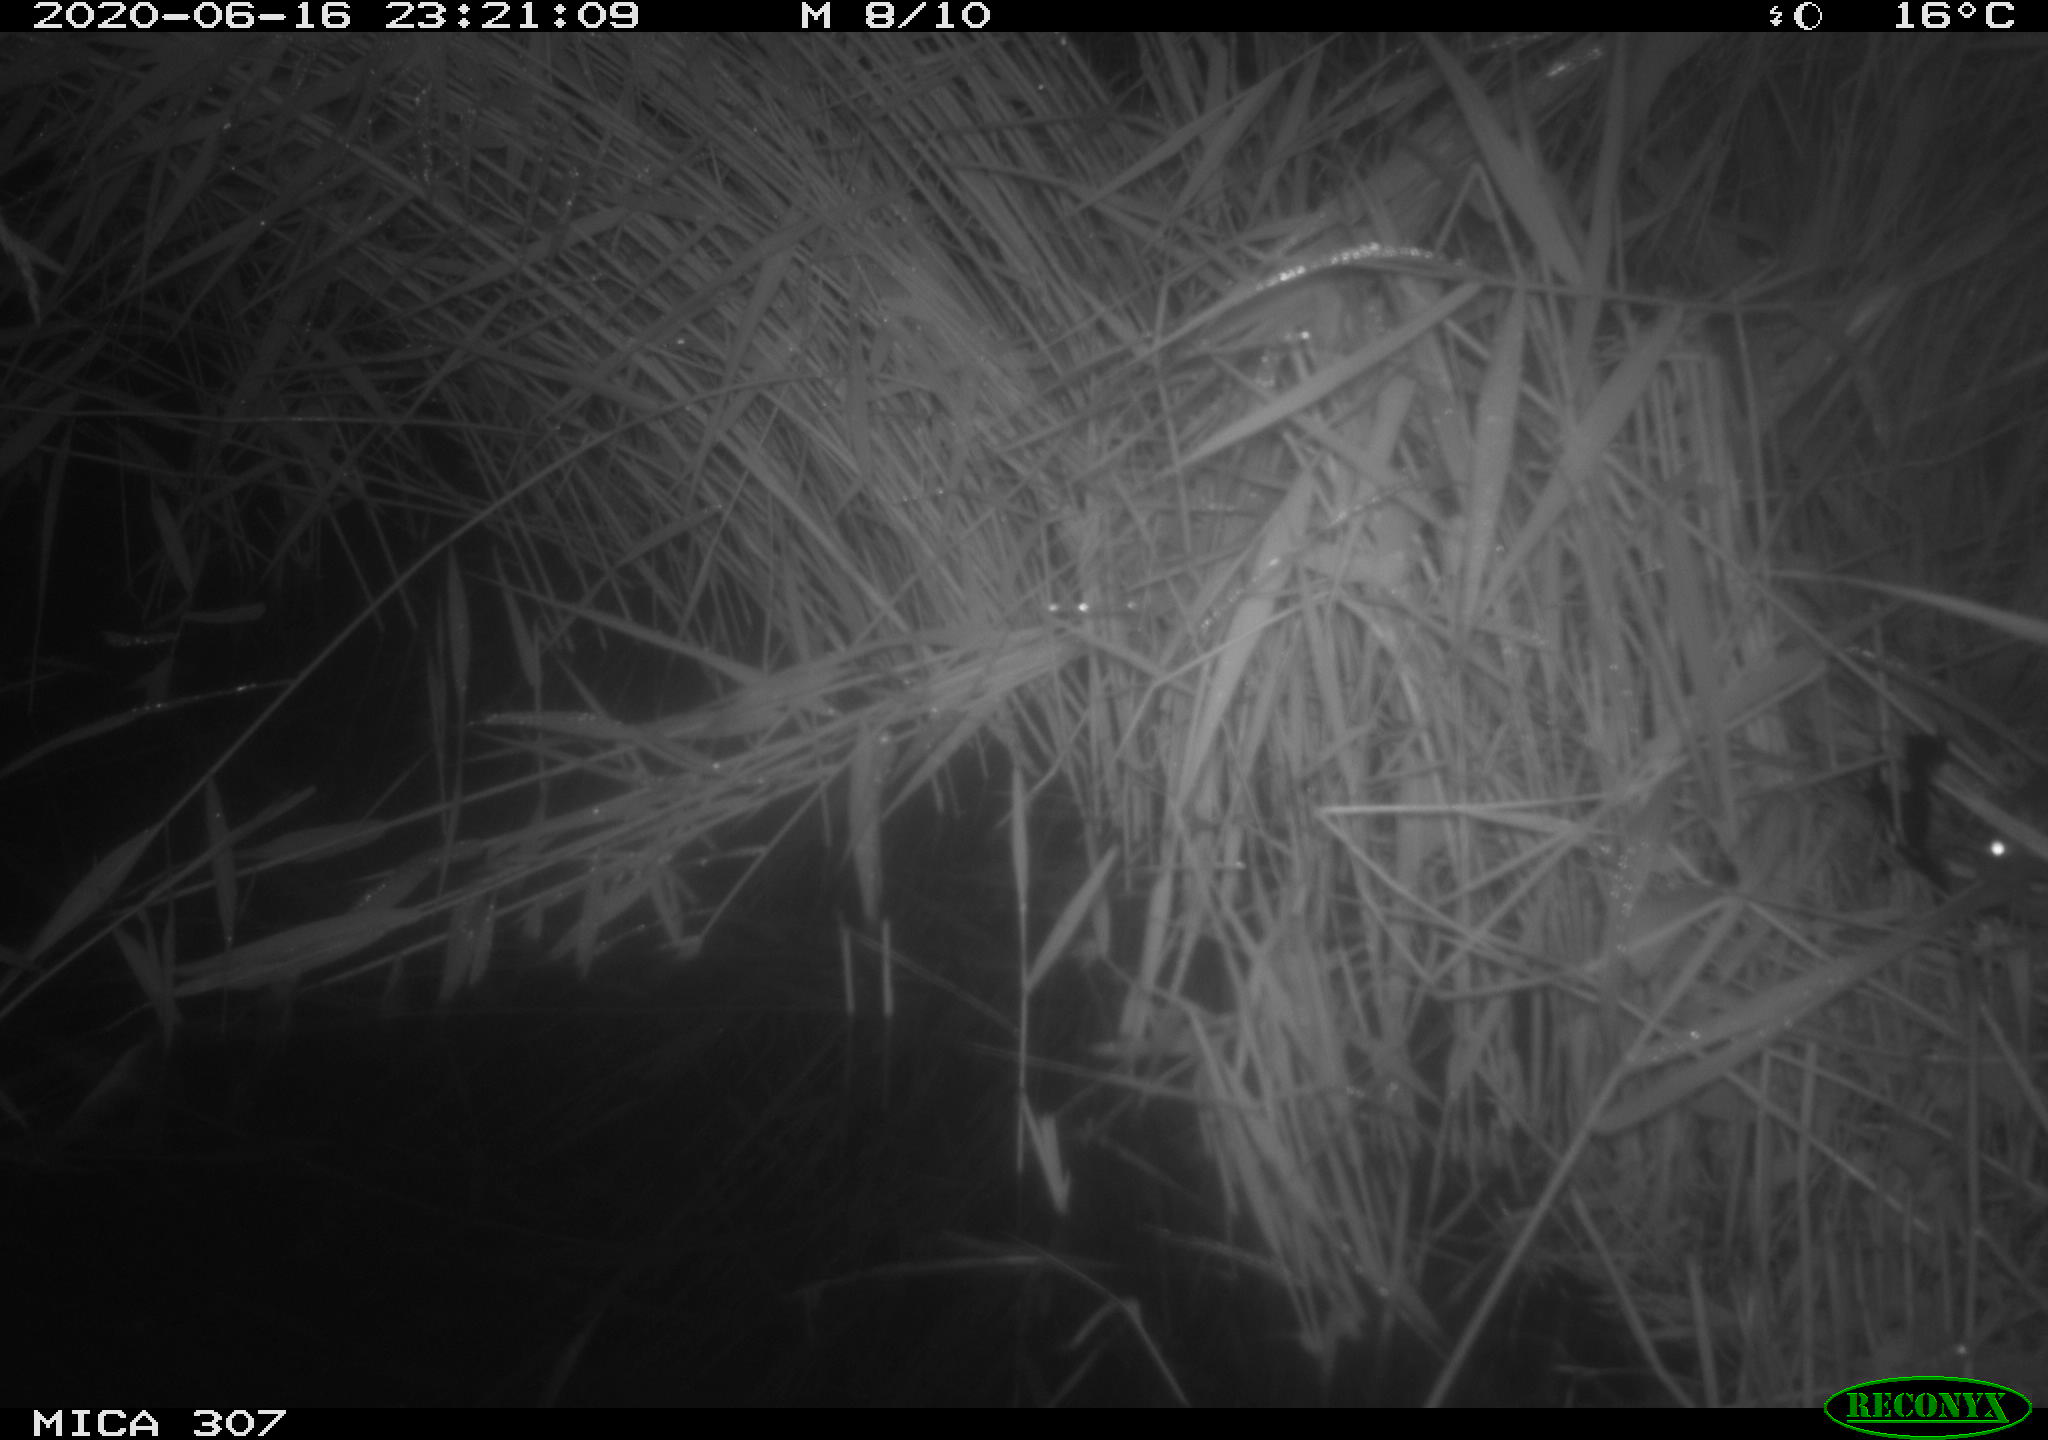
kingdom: Animalia
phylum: Chordata
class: Mammalia
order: Rodentia
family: Muridae
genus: Rattus
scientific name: Rattus norvegicus
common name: Brown rat
